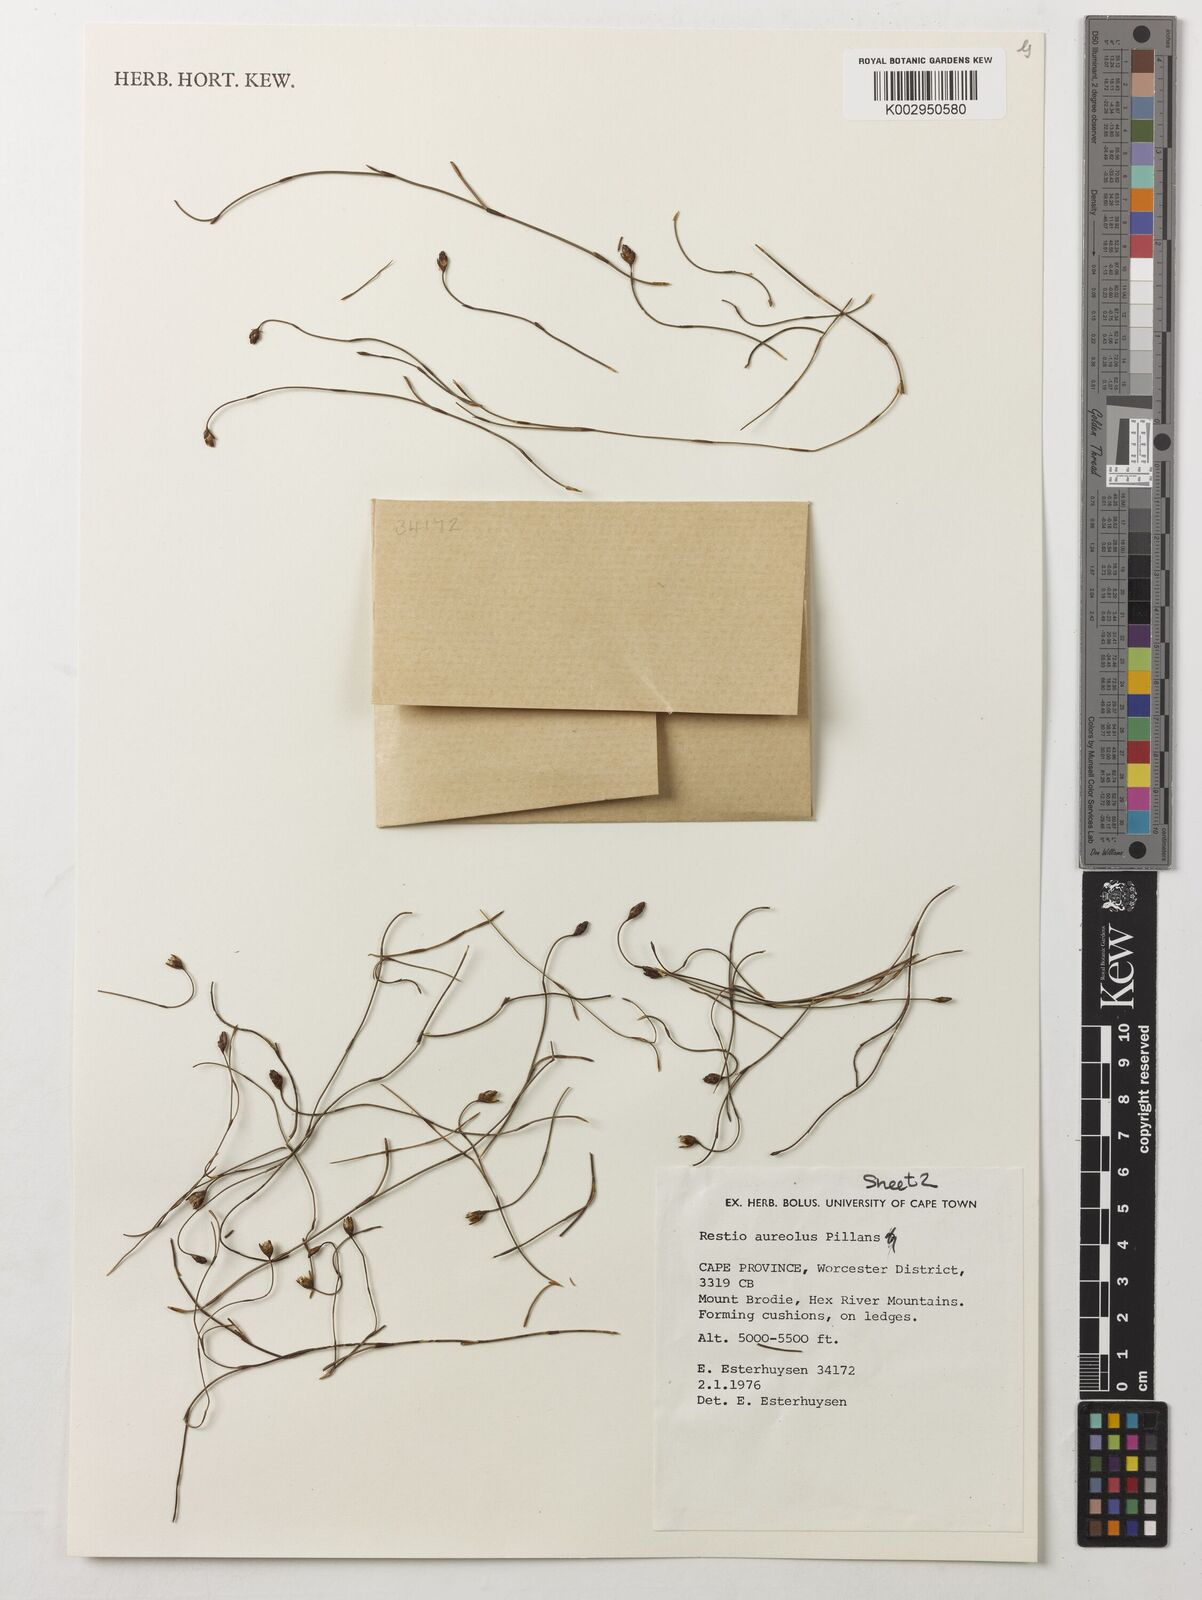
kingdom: Plantae
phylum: Tracheophyta
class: Liliopsida
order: Poales
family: Restionaceae
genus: Restio
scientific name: Restio aureolus
